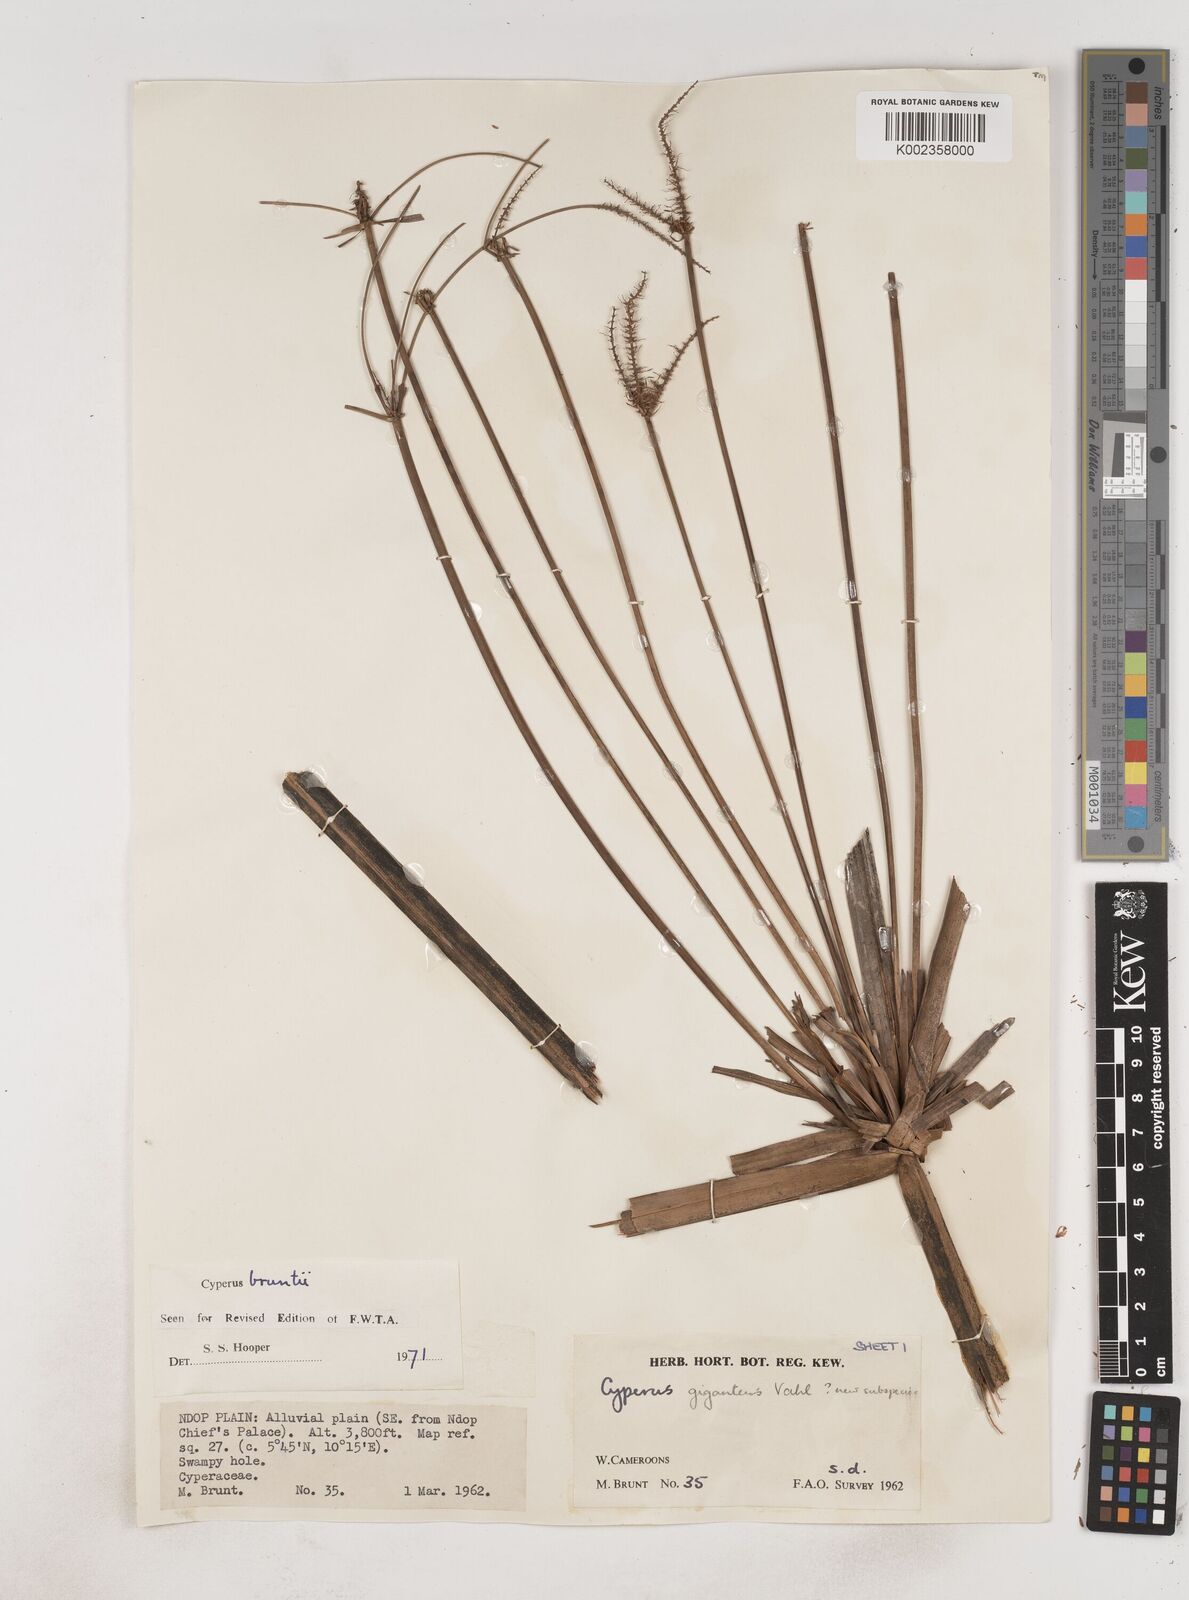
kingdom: Plantae
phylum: Tracheophyta
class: Liliopsida
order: Poales
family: Cyperaceae
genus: Cyperus
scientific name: Cyperus
